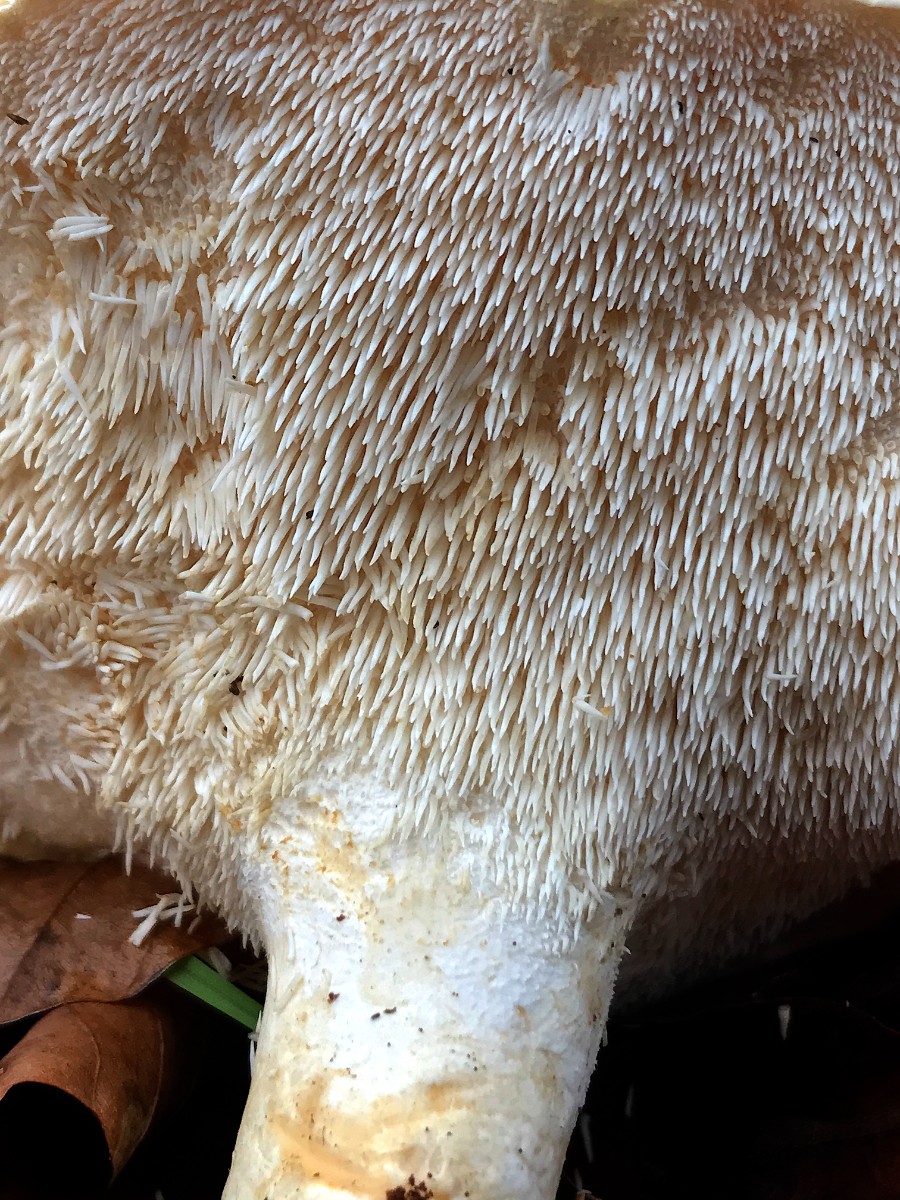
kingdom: Fungi
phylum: Basidiomycota
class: Agaricomycetes
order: Cantharellales
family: Hydnaceae
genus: Hydnum
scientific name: Hydnum repandum
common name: almindelig pigsvamp
